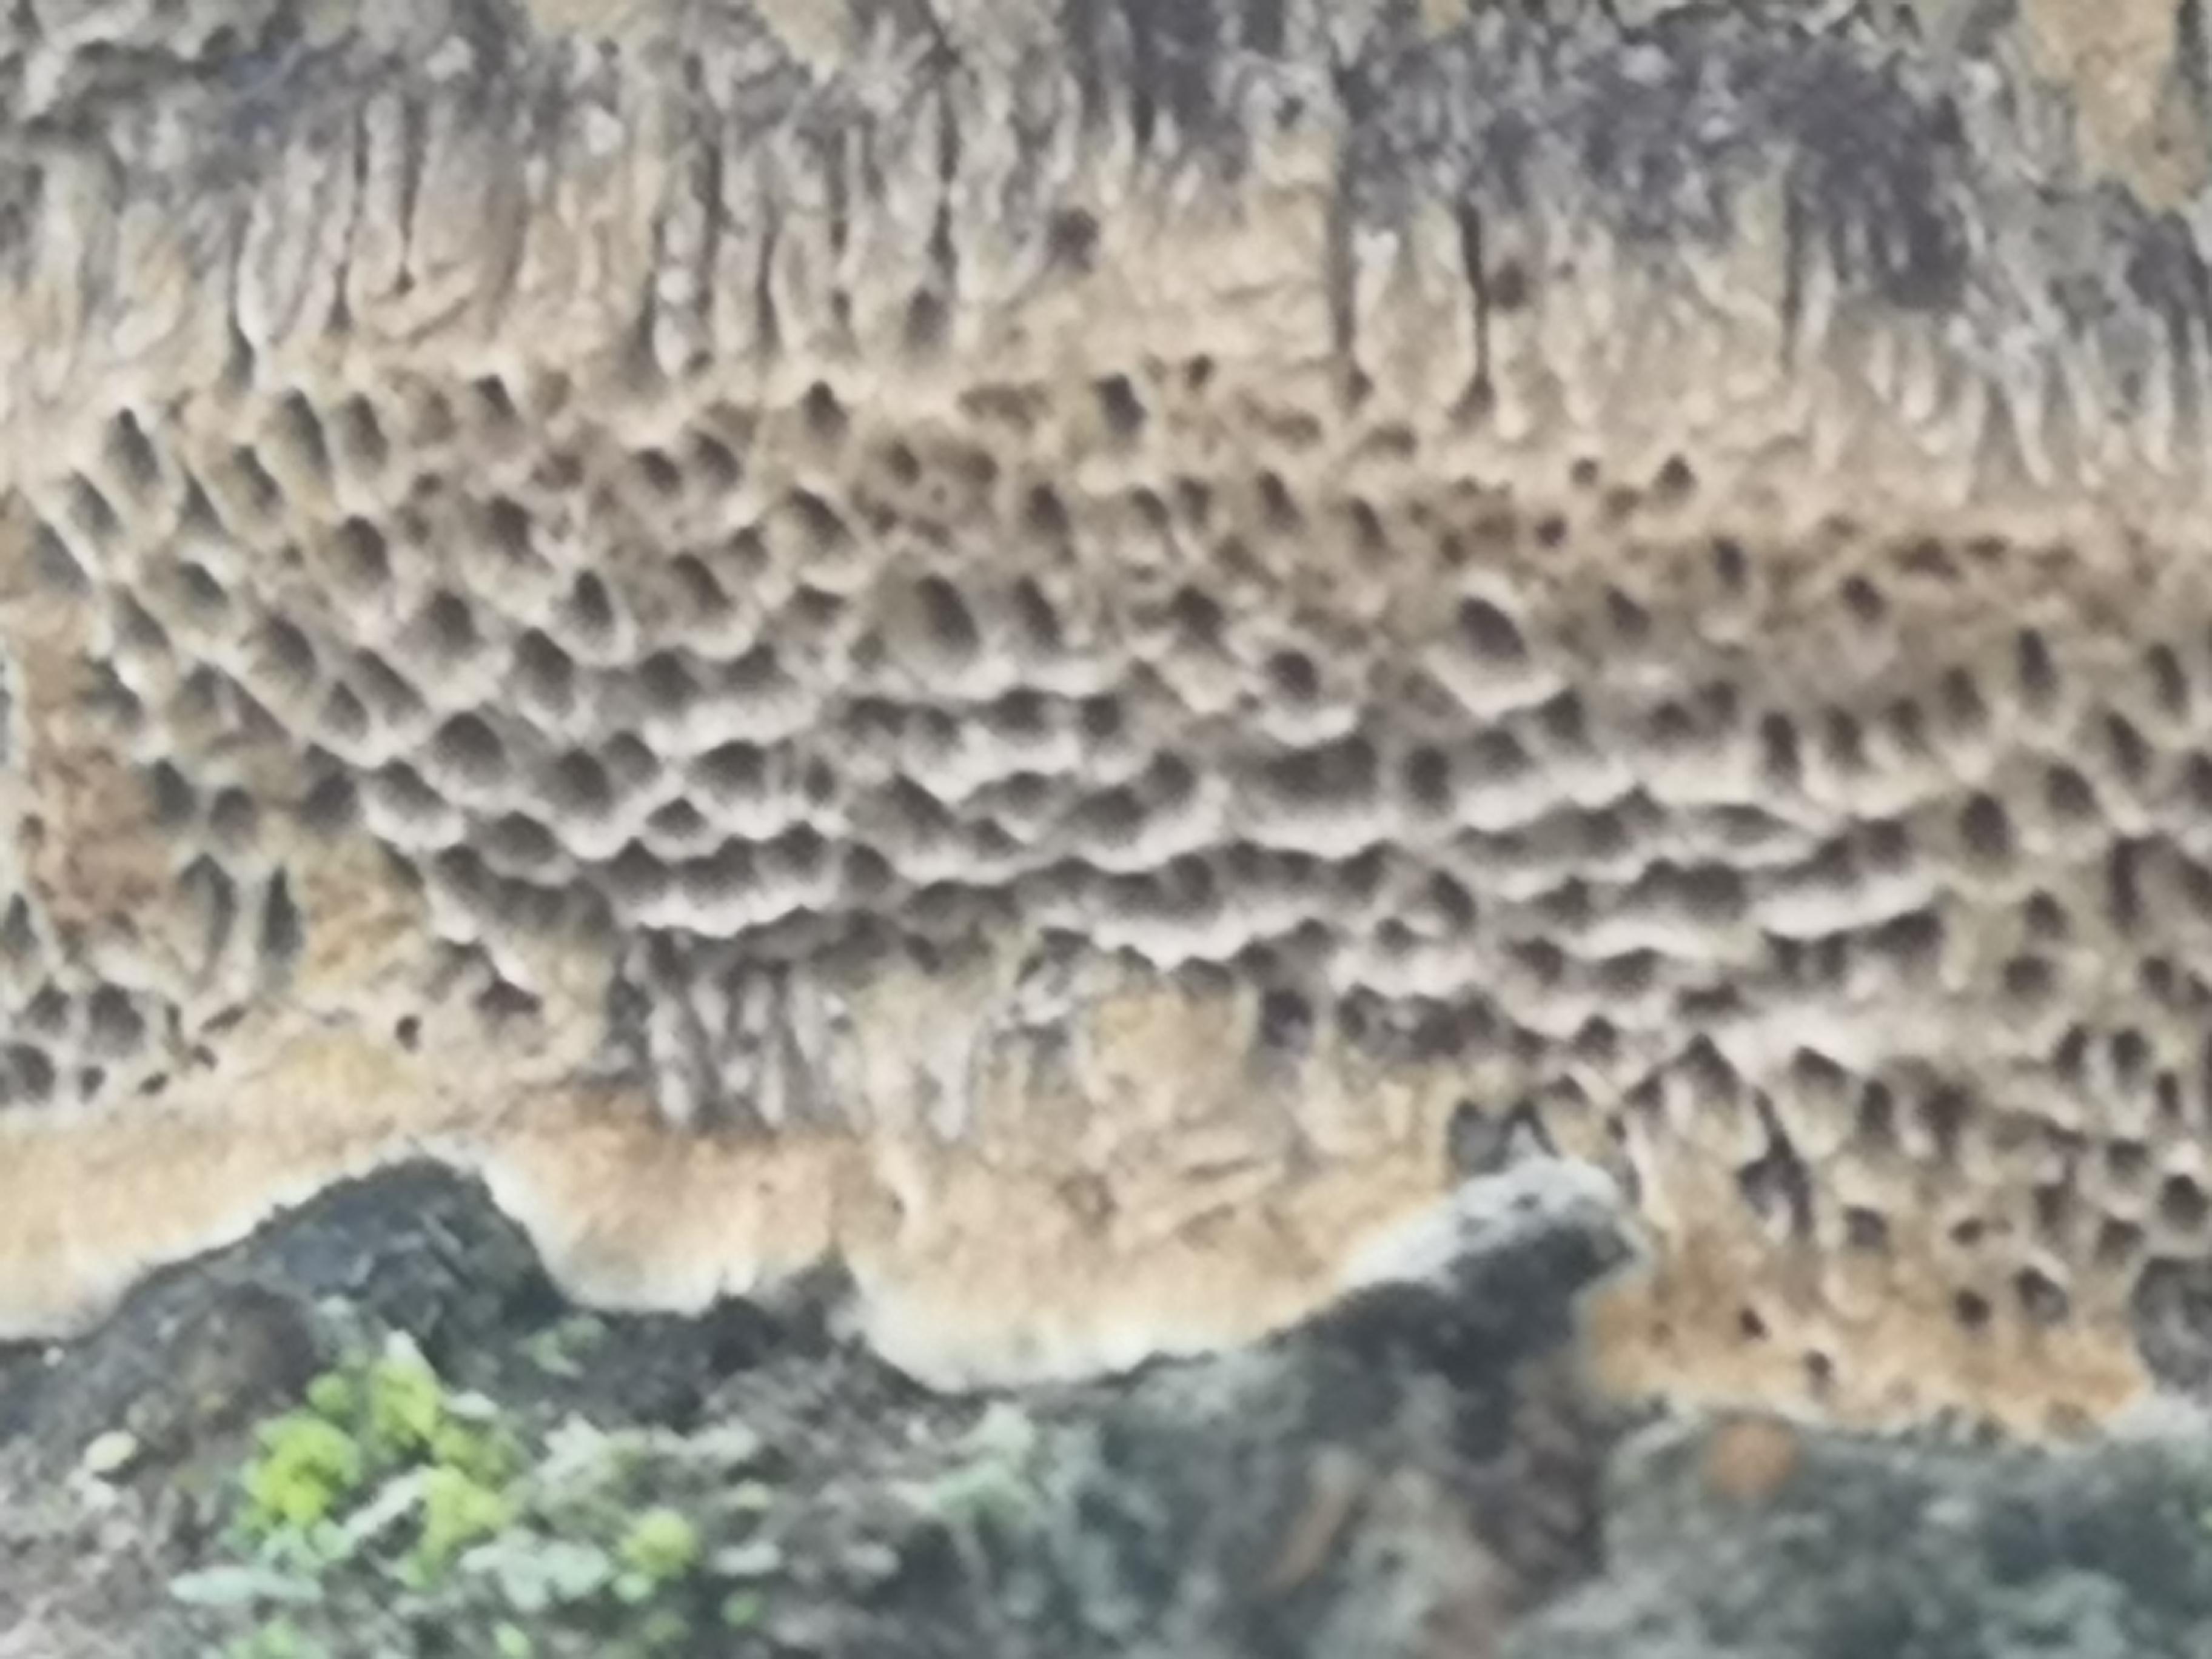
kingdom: Fungi
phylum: Basidiomycota
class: Agaricomycetes
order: Hymenochaetales
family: Hymenochaetaceae
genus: Phellinus
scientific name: Phellinus pomaceus
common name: blomme-ildporesvamp
